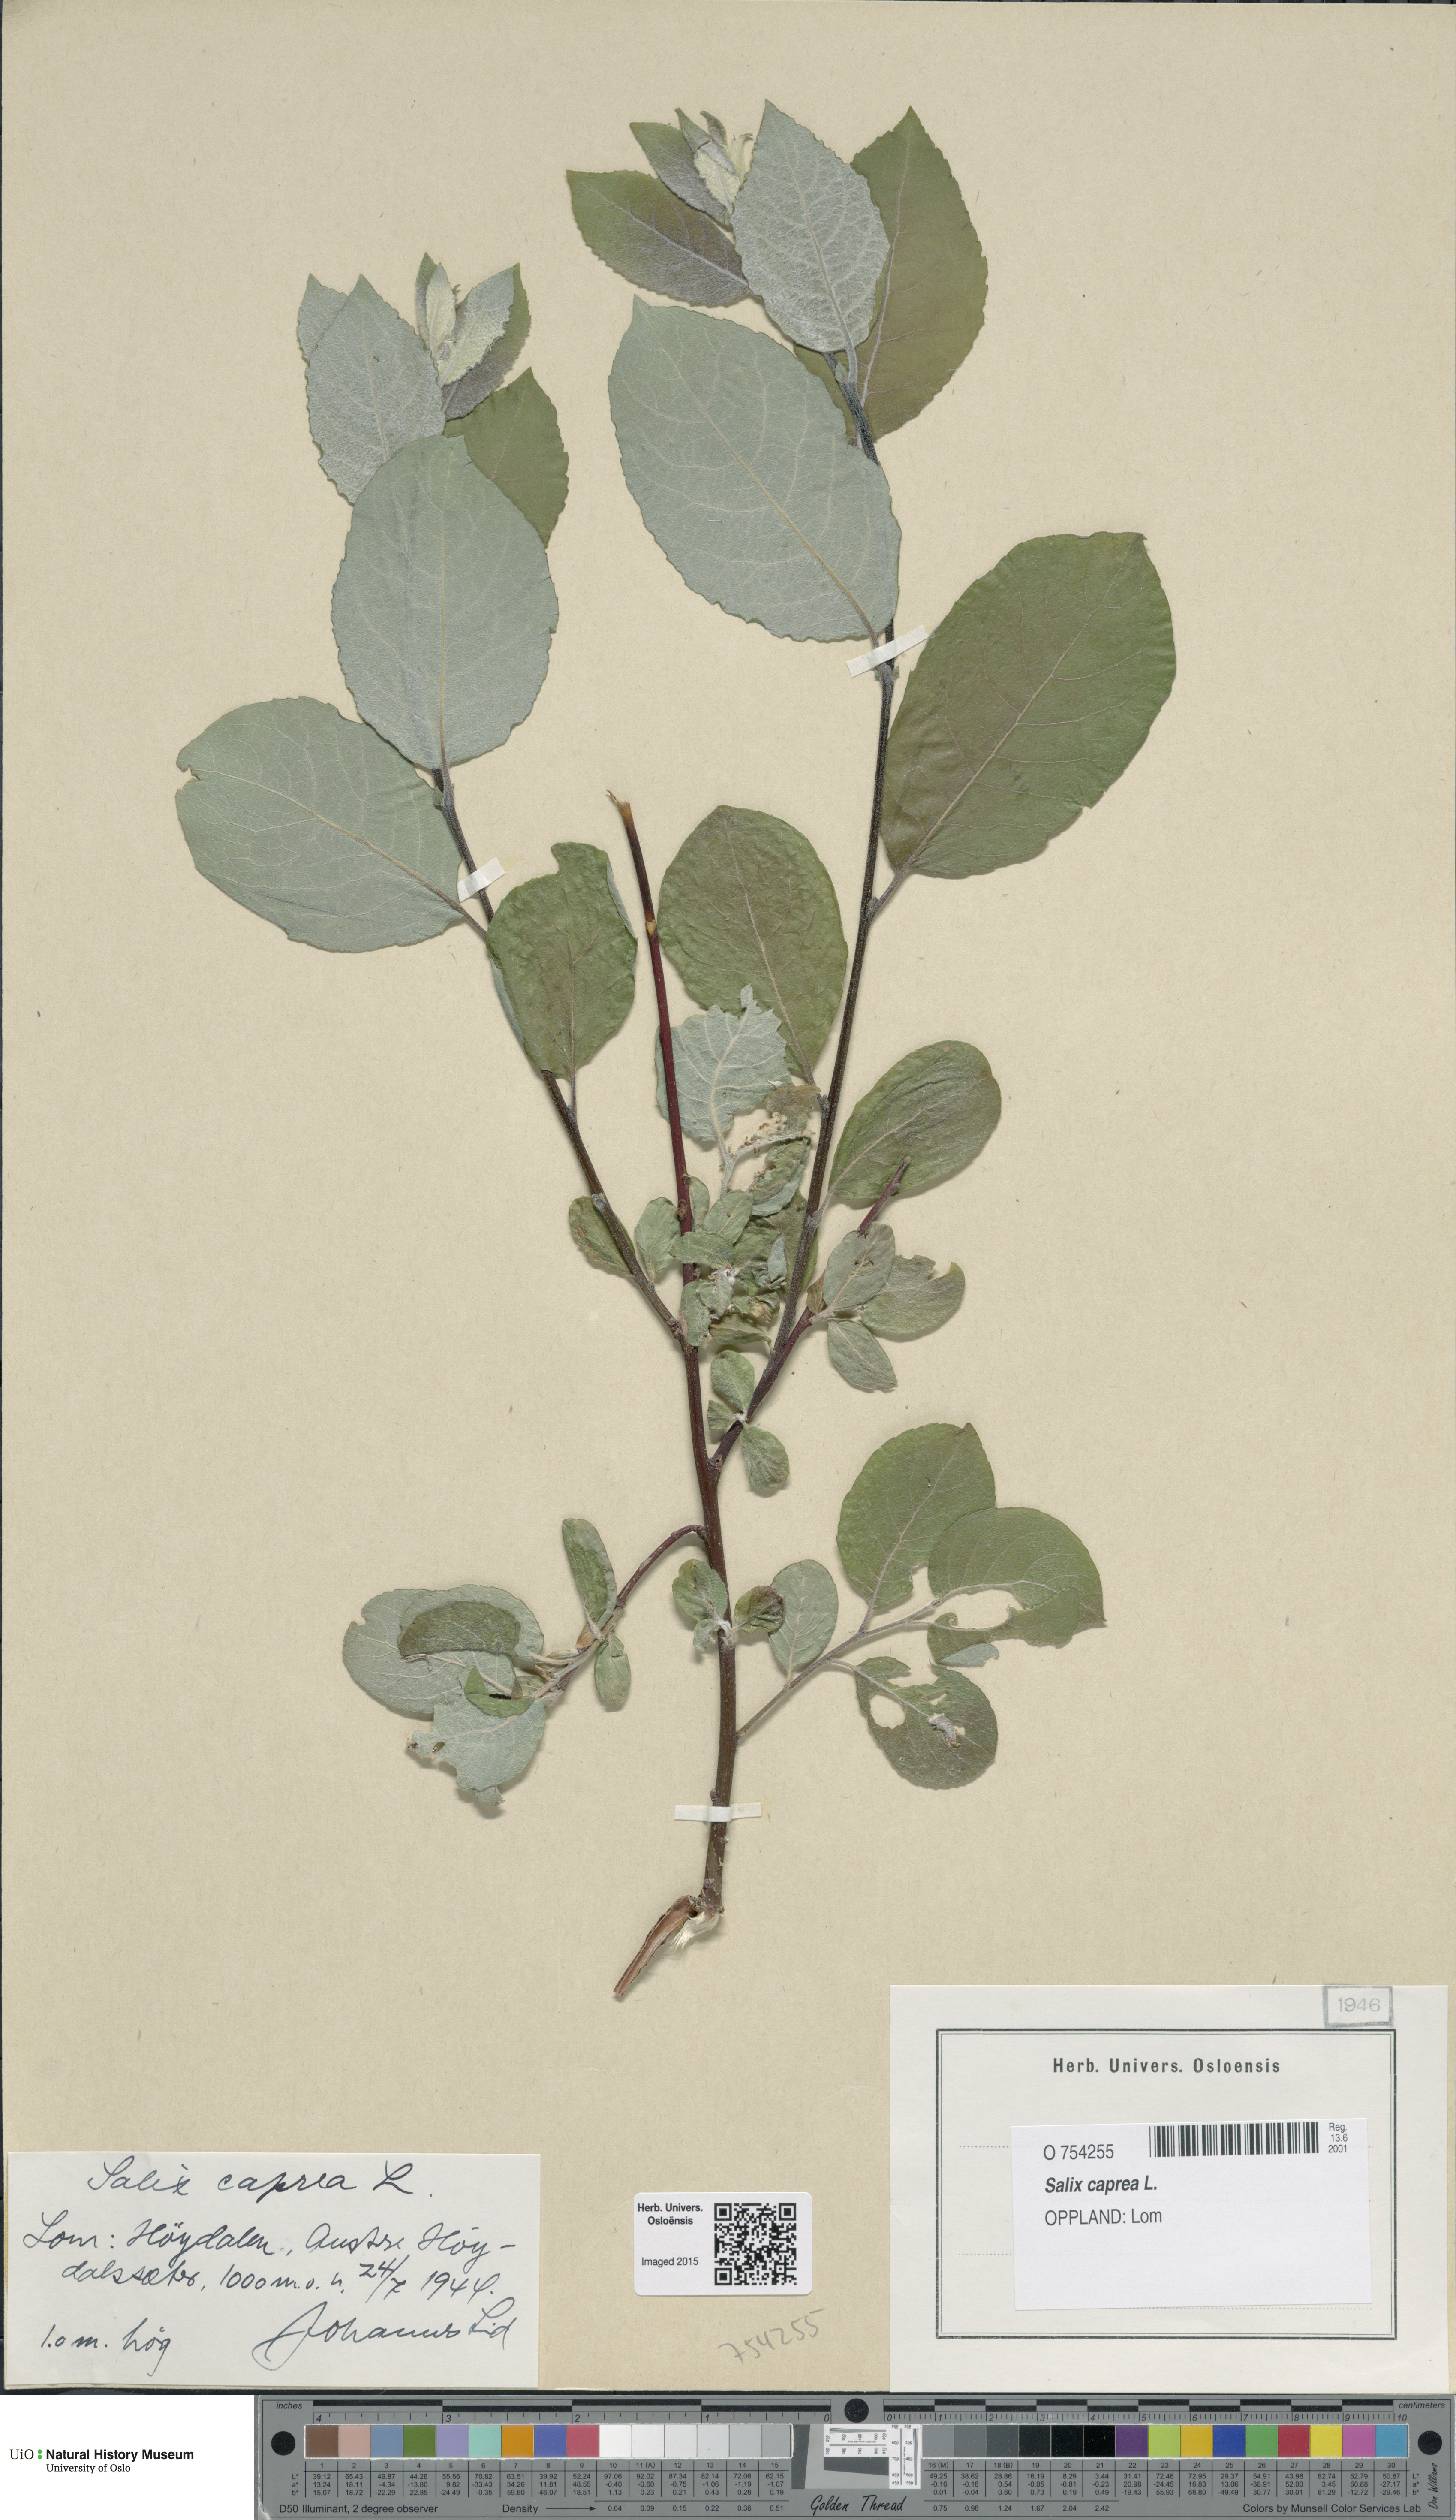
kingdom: Plantae
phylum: Tracheophyta
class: Magnoliopsida
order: Malpighiales
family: Salicaceae
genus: Salix
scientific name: Salix caprea
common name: Goat willow
